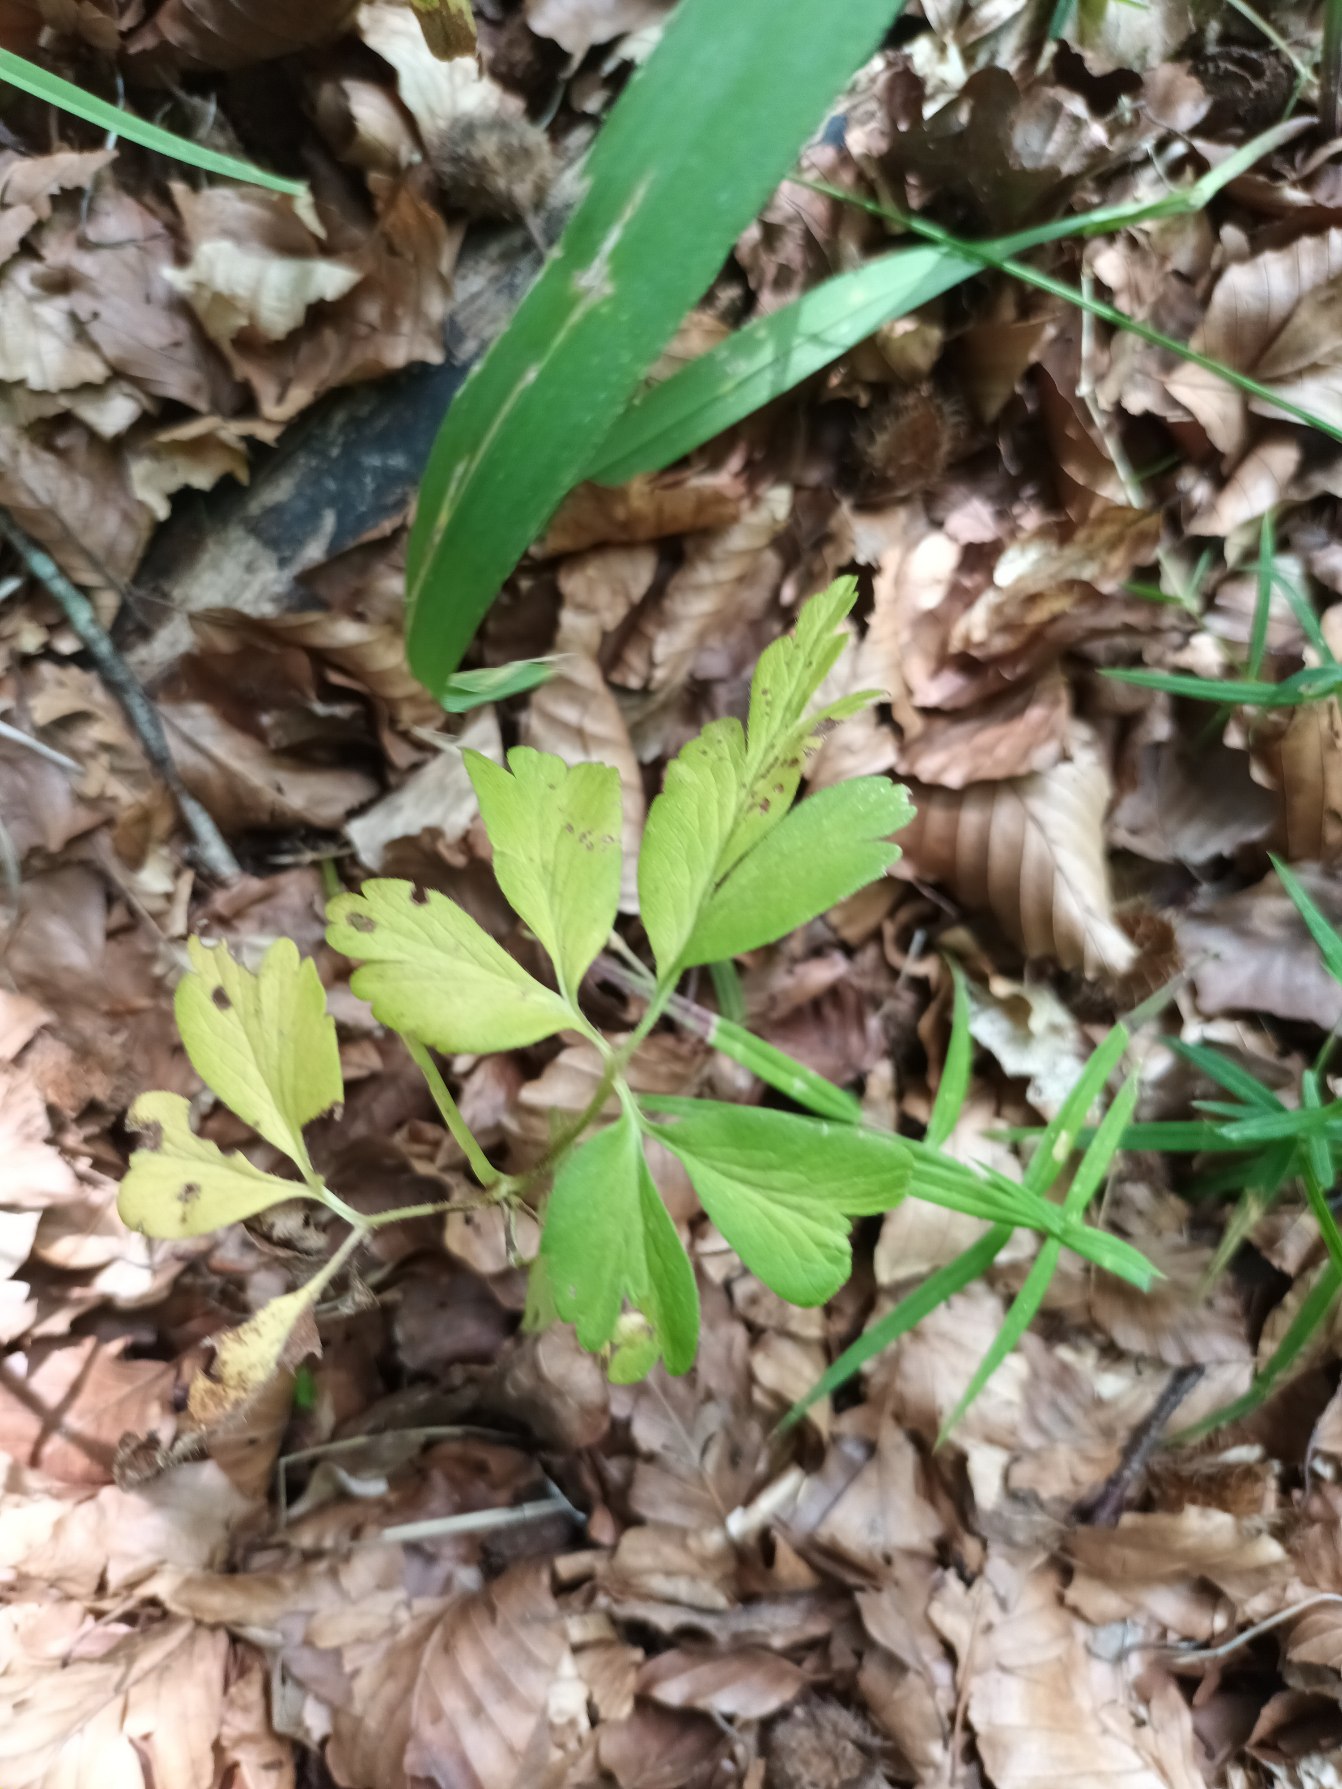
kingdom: Plantae
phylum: Tracheophyta
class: Magnoliopsida
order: Ranunculales
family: Ranunculaceae
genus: Anemone
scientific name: Anemone nemorosa
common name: Hvid anemone
